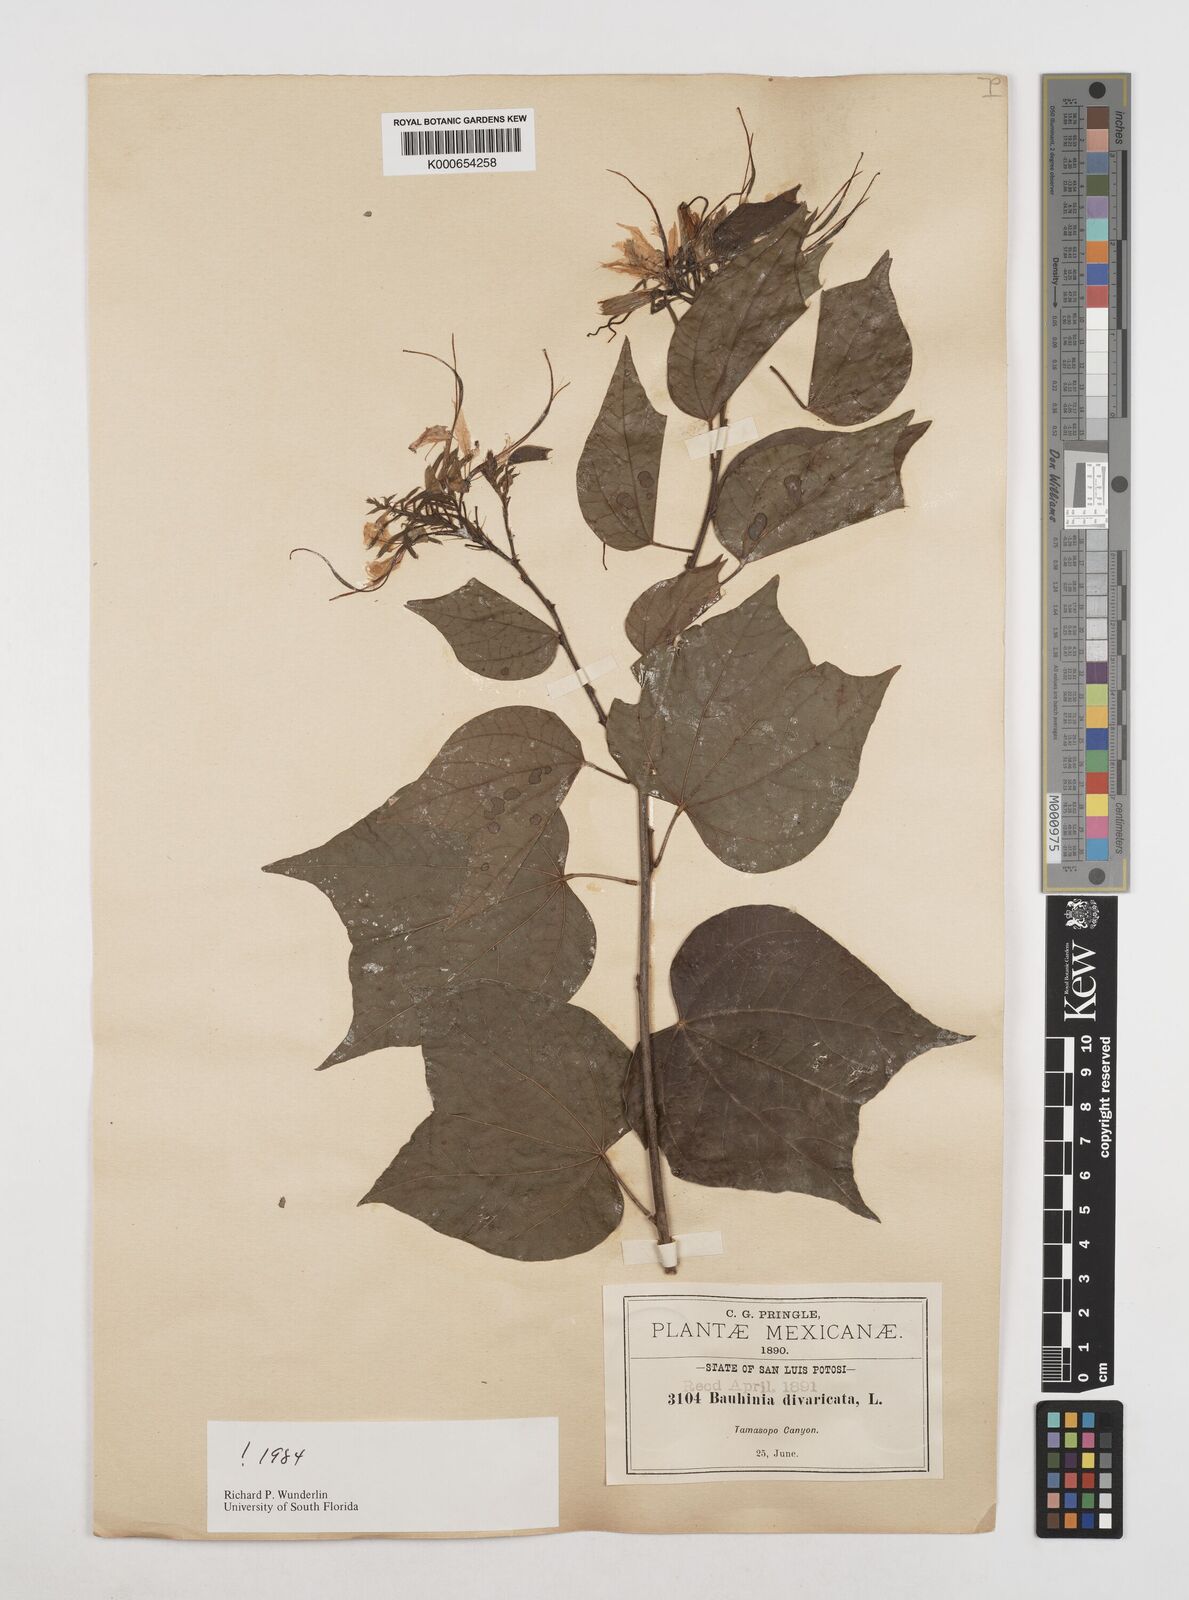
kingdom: Plantae
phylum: Tracheophyta
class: Magnoliopsida
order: Fabales
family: Fabaceae
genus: Bauhinia
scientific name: Bauhinia divaricata
